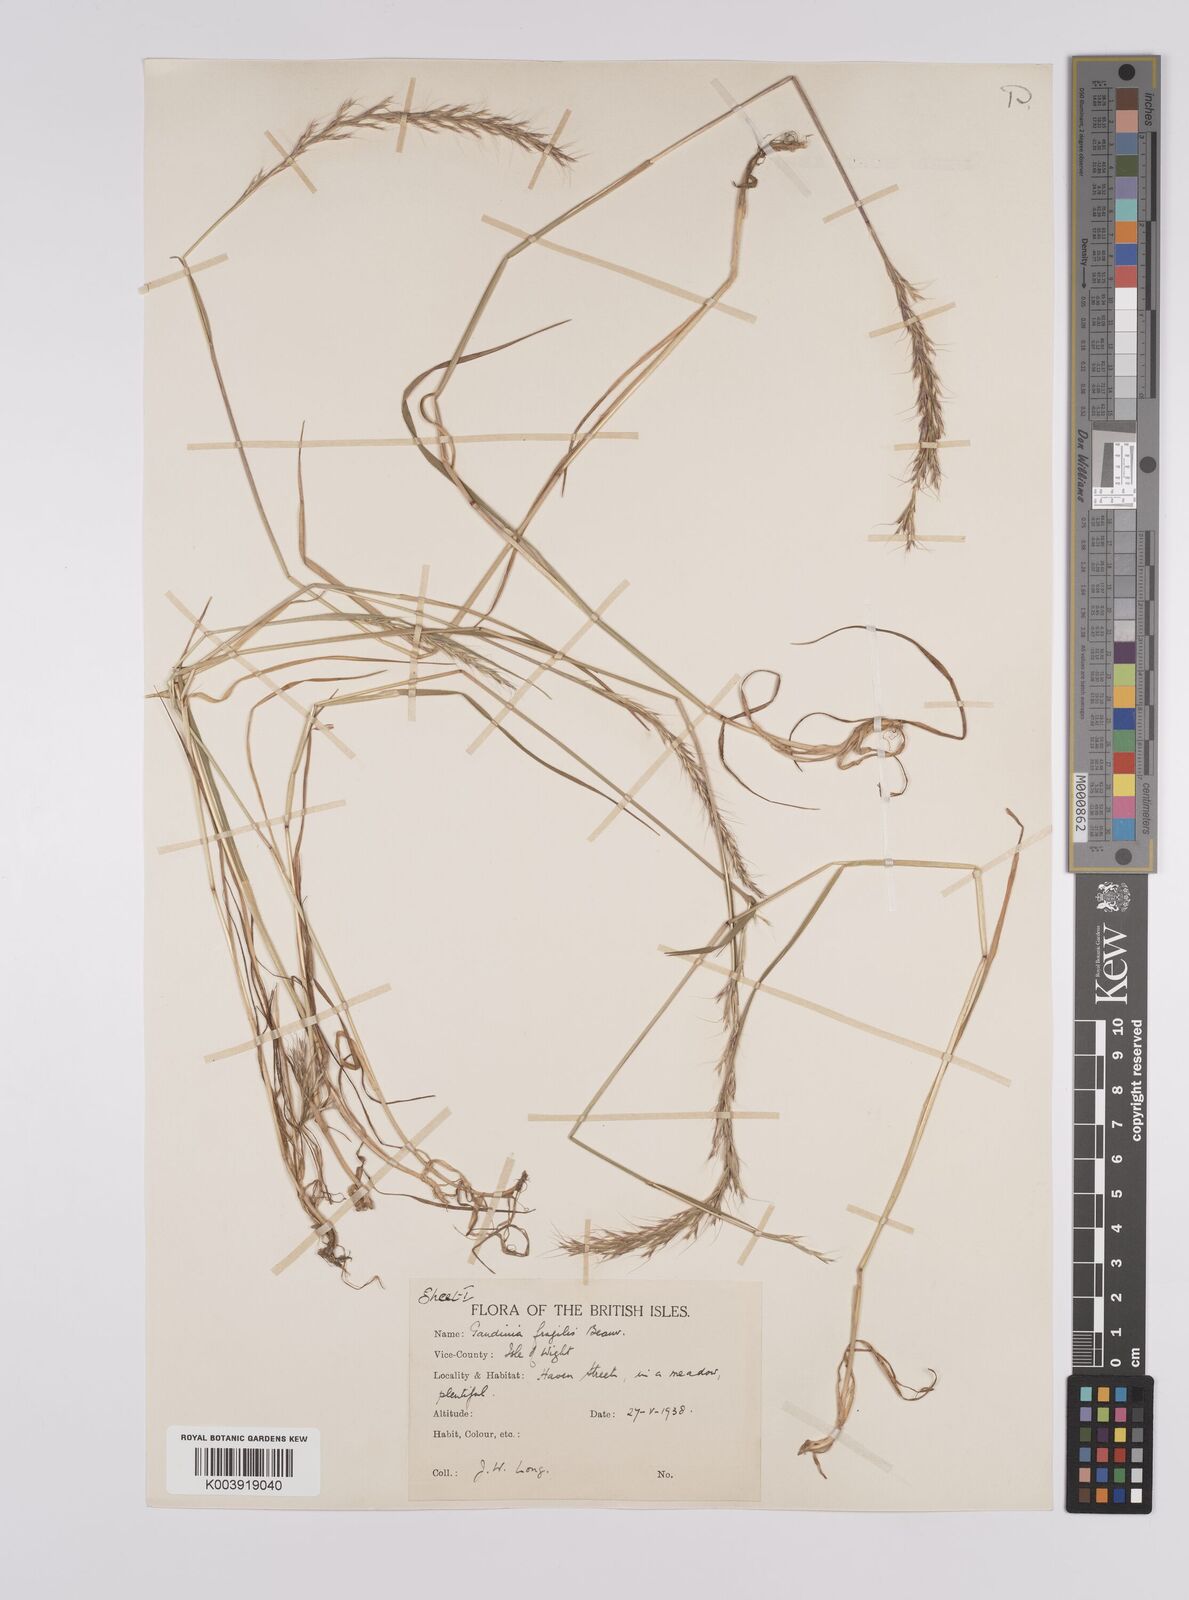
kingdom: Plantae
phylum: Tracheophyta
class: Liliopsida
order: Poales
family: Poaceae
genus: Gaudinia
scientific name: Gaudinia fragilis
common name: French oat-grass
